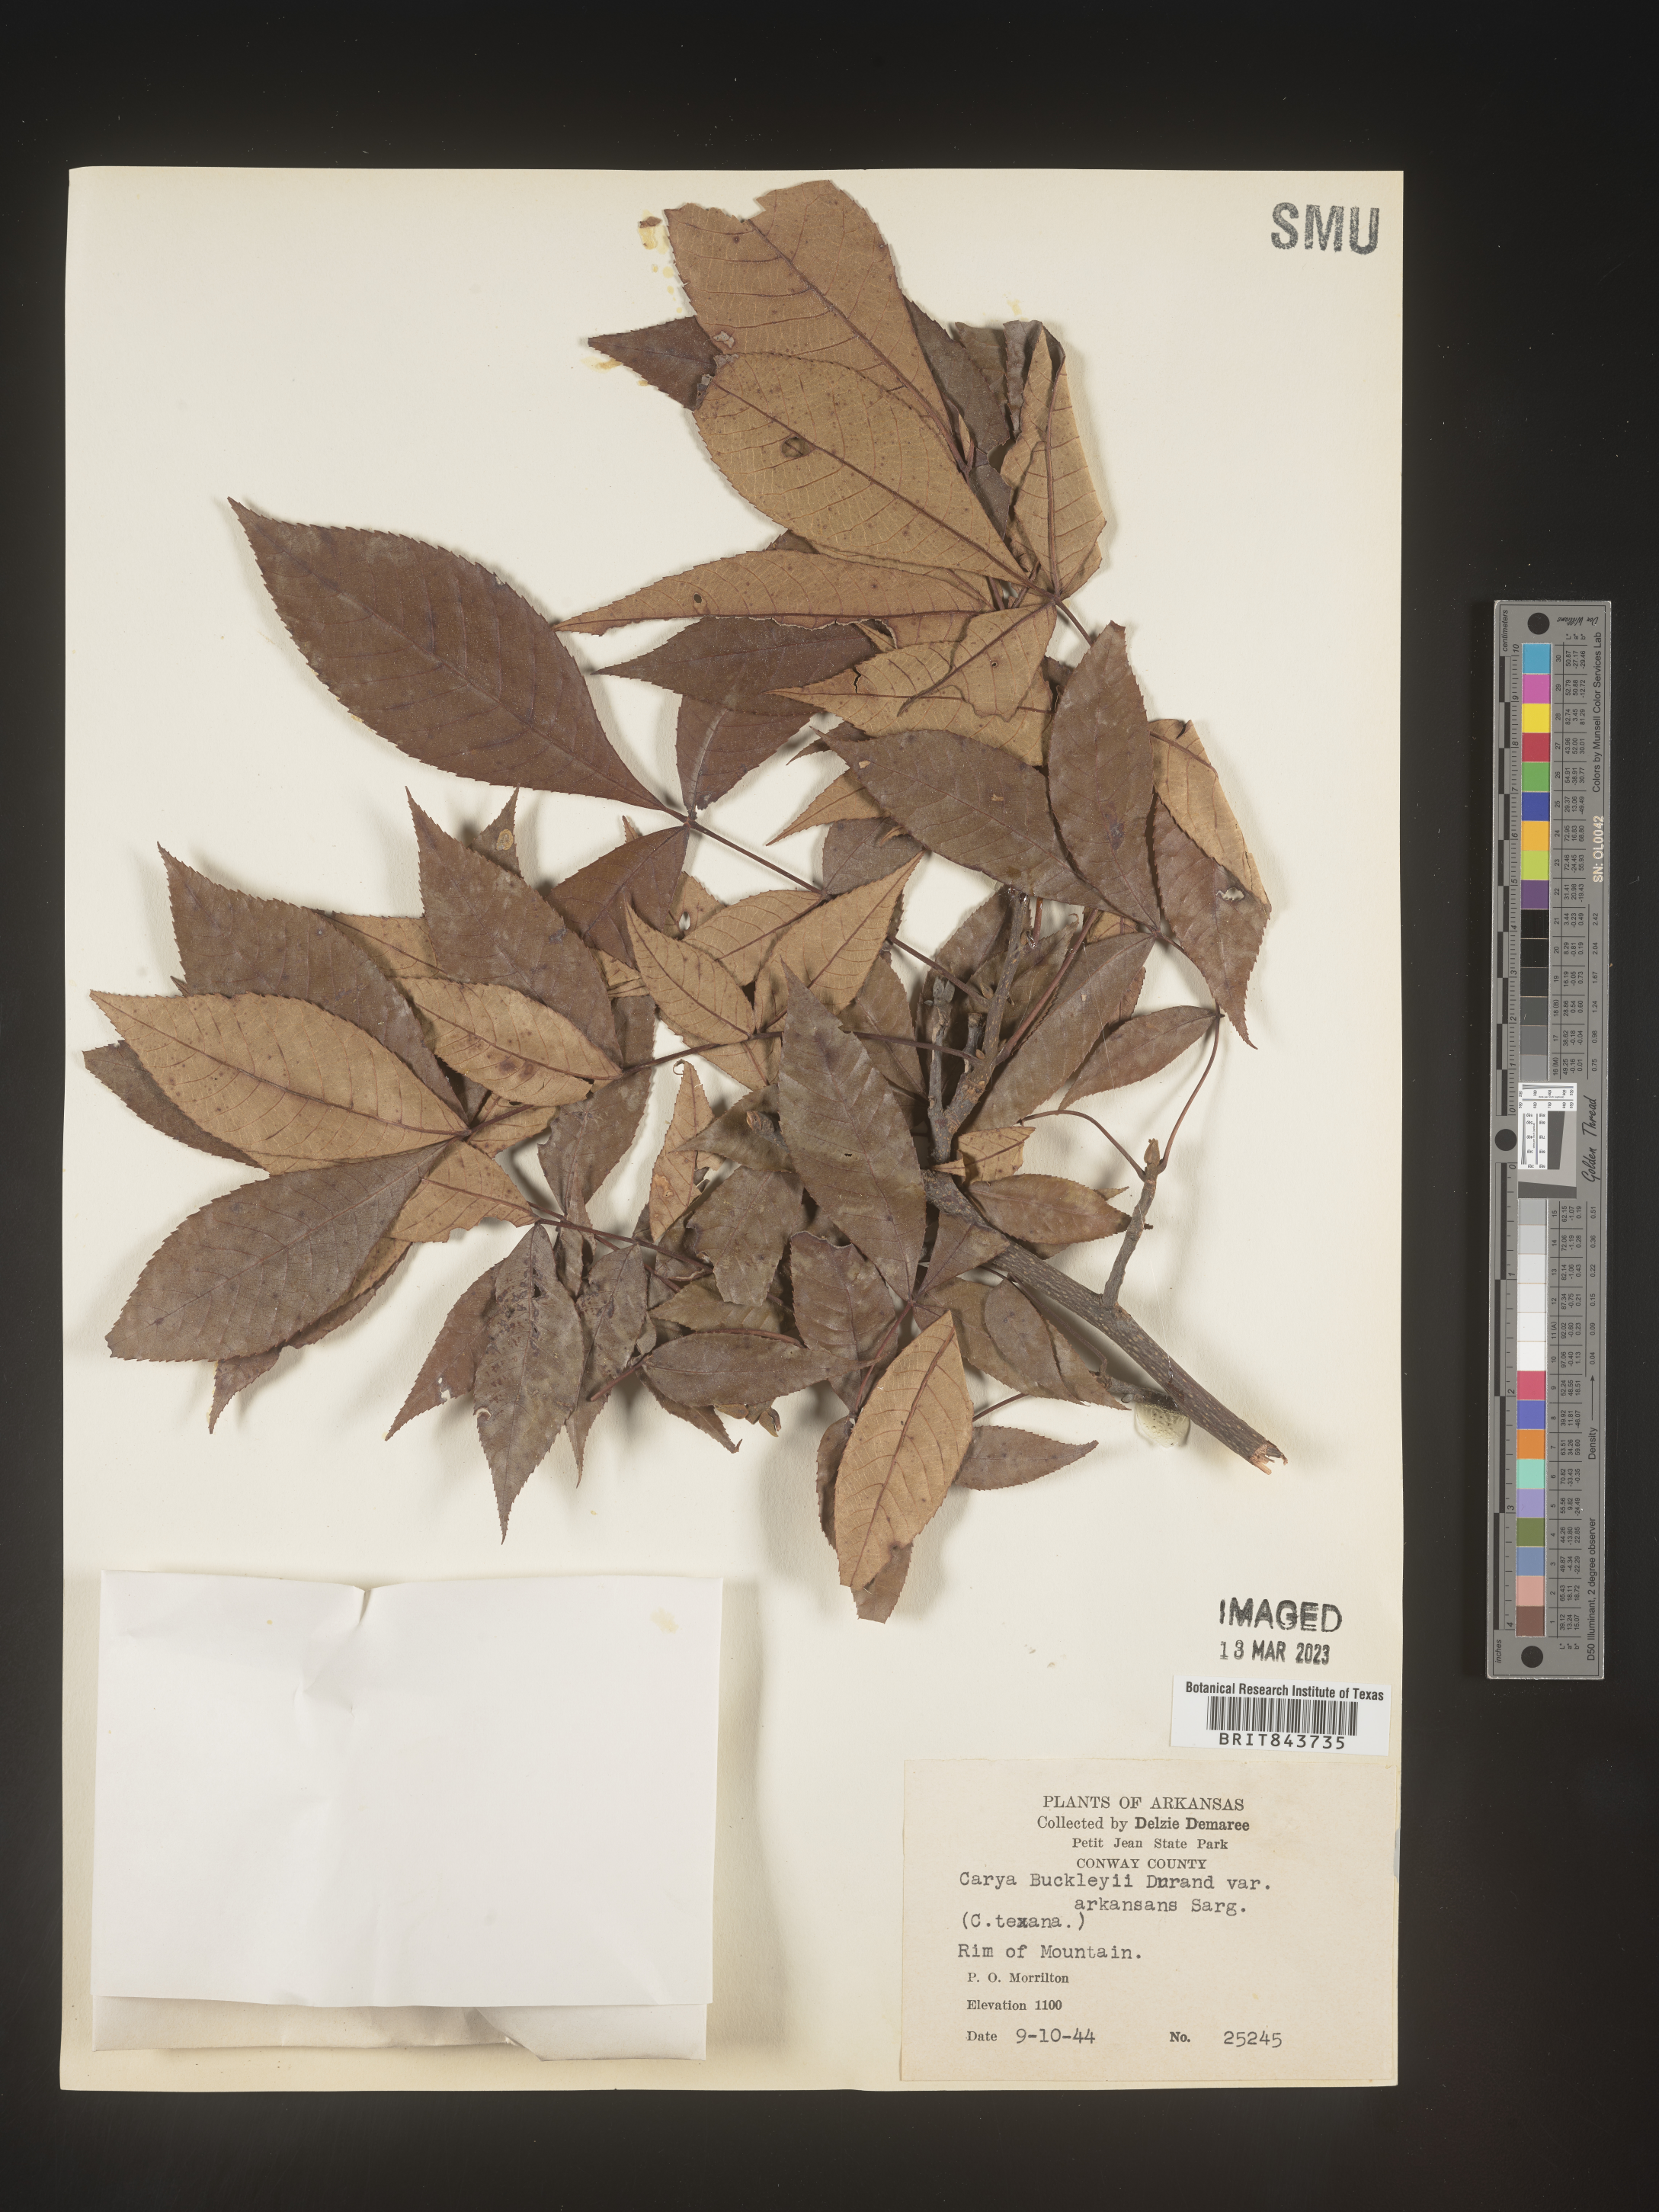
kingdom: Plantae
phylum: Tracheophyta
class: Magnoliopsida
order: Fagales
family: Juglandaceae
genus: Carya
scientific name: Carya texana
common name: Black hickory
